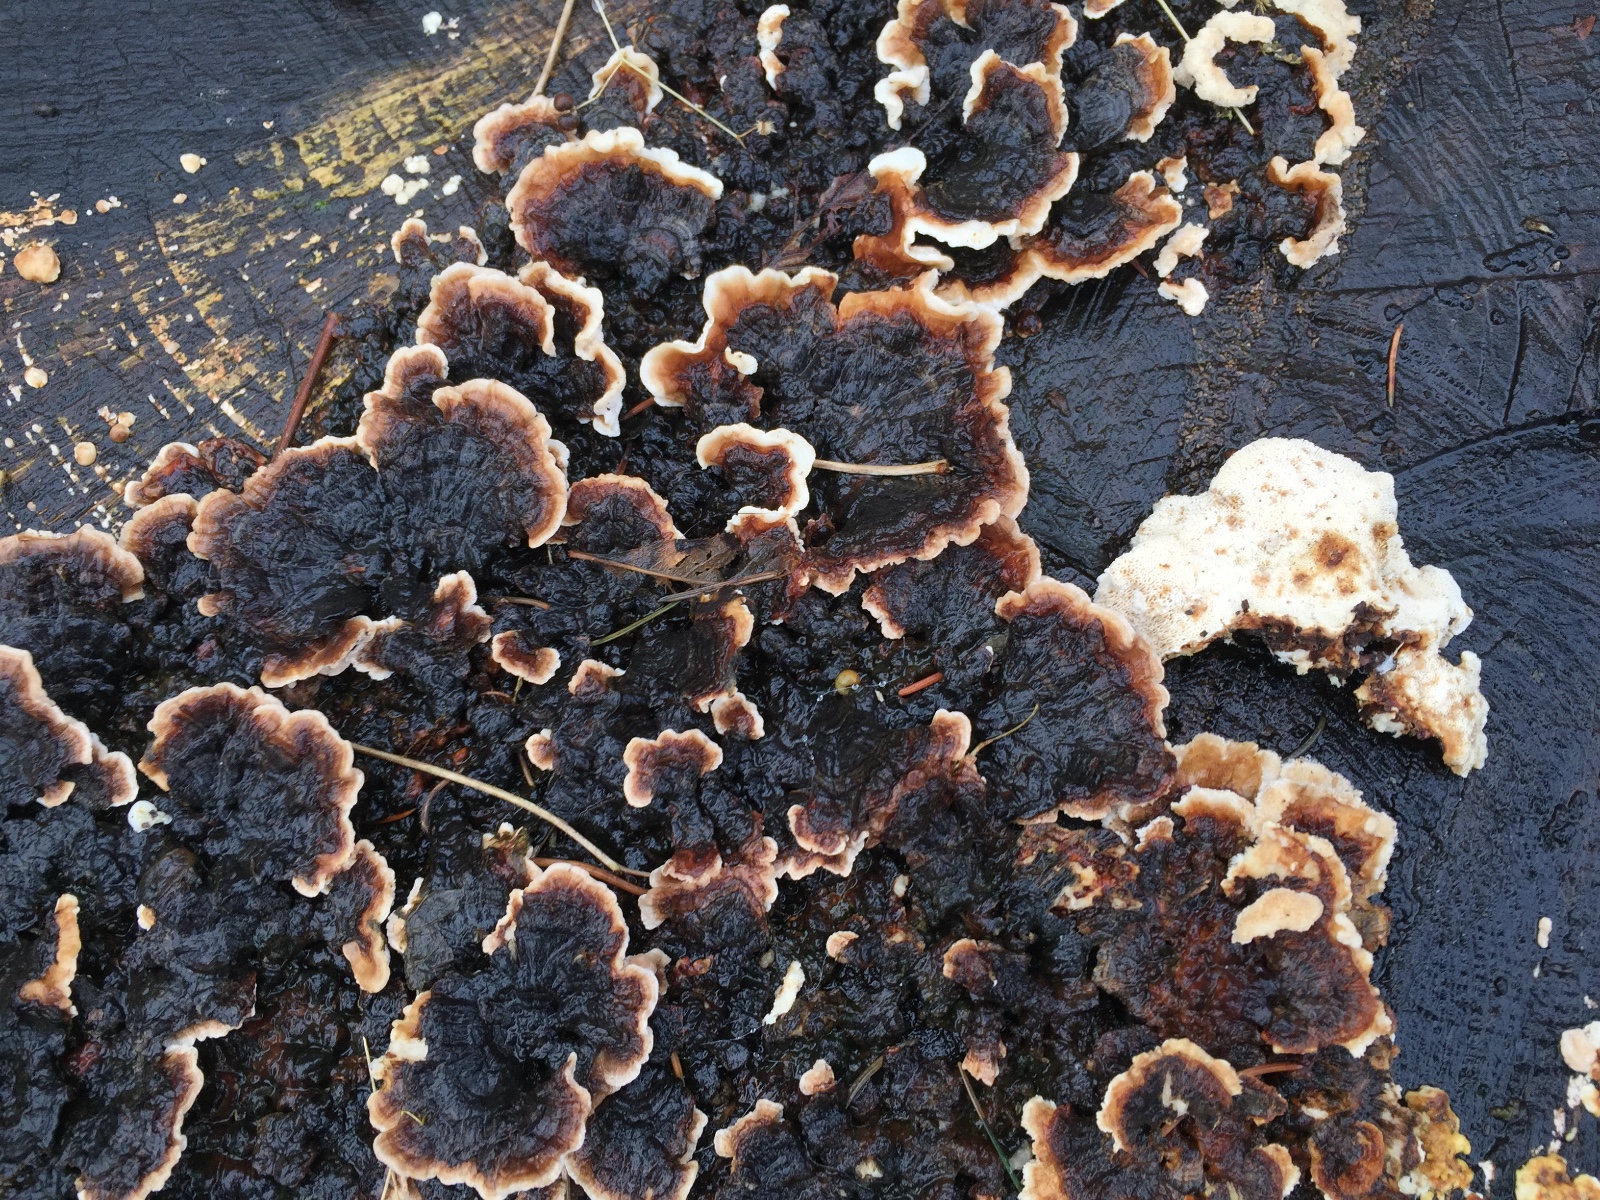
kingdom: Fungi
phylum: Basidiomycota
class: Agaricomycetes
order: Polyporales
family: Polyporaceae
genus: Trametes
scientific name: Trametes versicolor
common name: broget læderporesvamp
